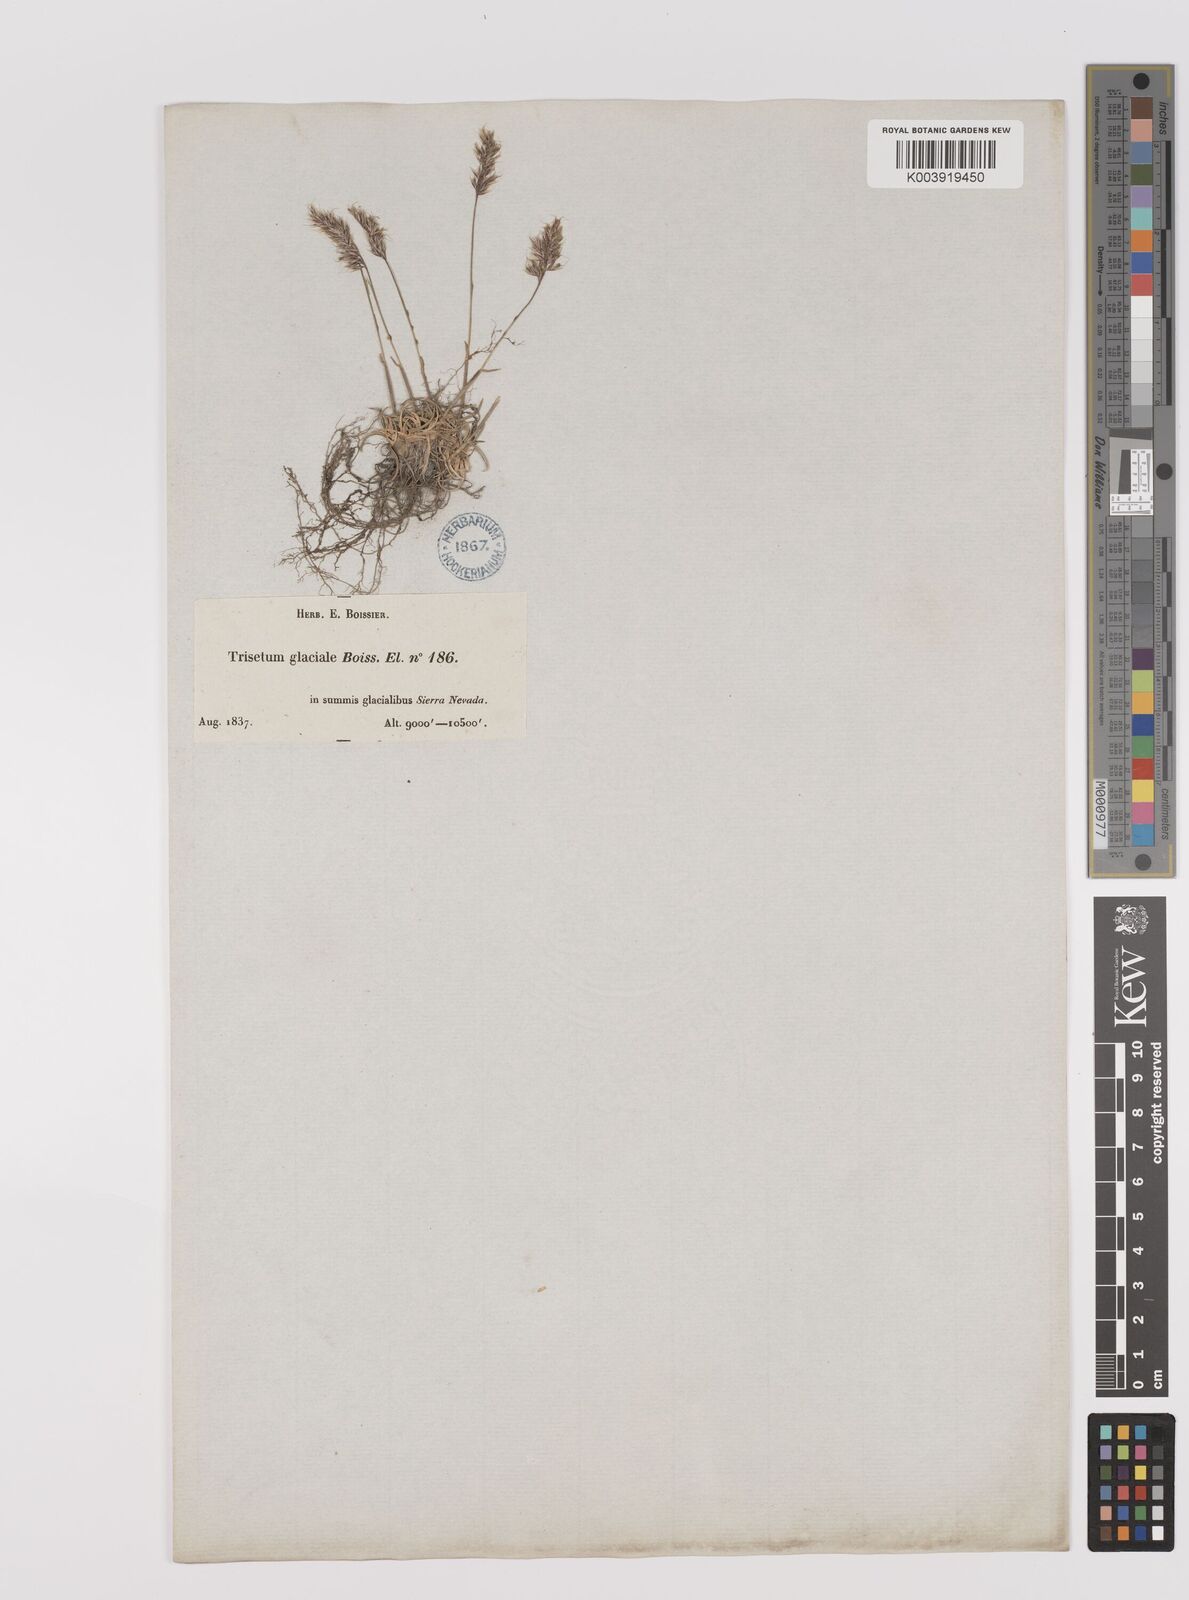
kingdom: Plantae
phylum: Tracheophyta
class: Liliopsida
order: Poales
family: Poaceae
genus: Acrospelion
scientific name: Acrospelion glaciale
